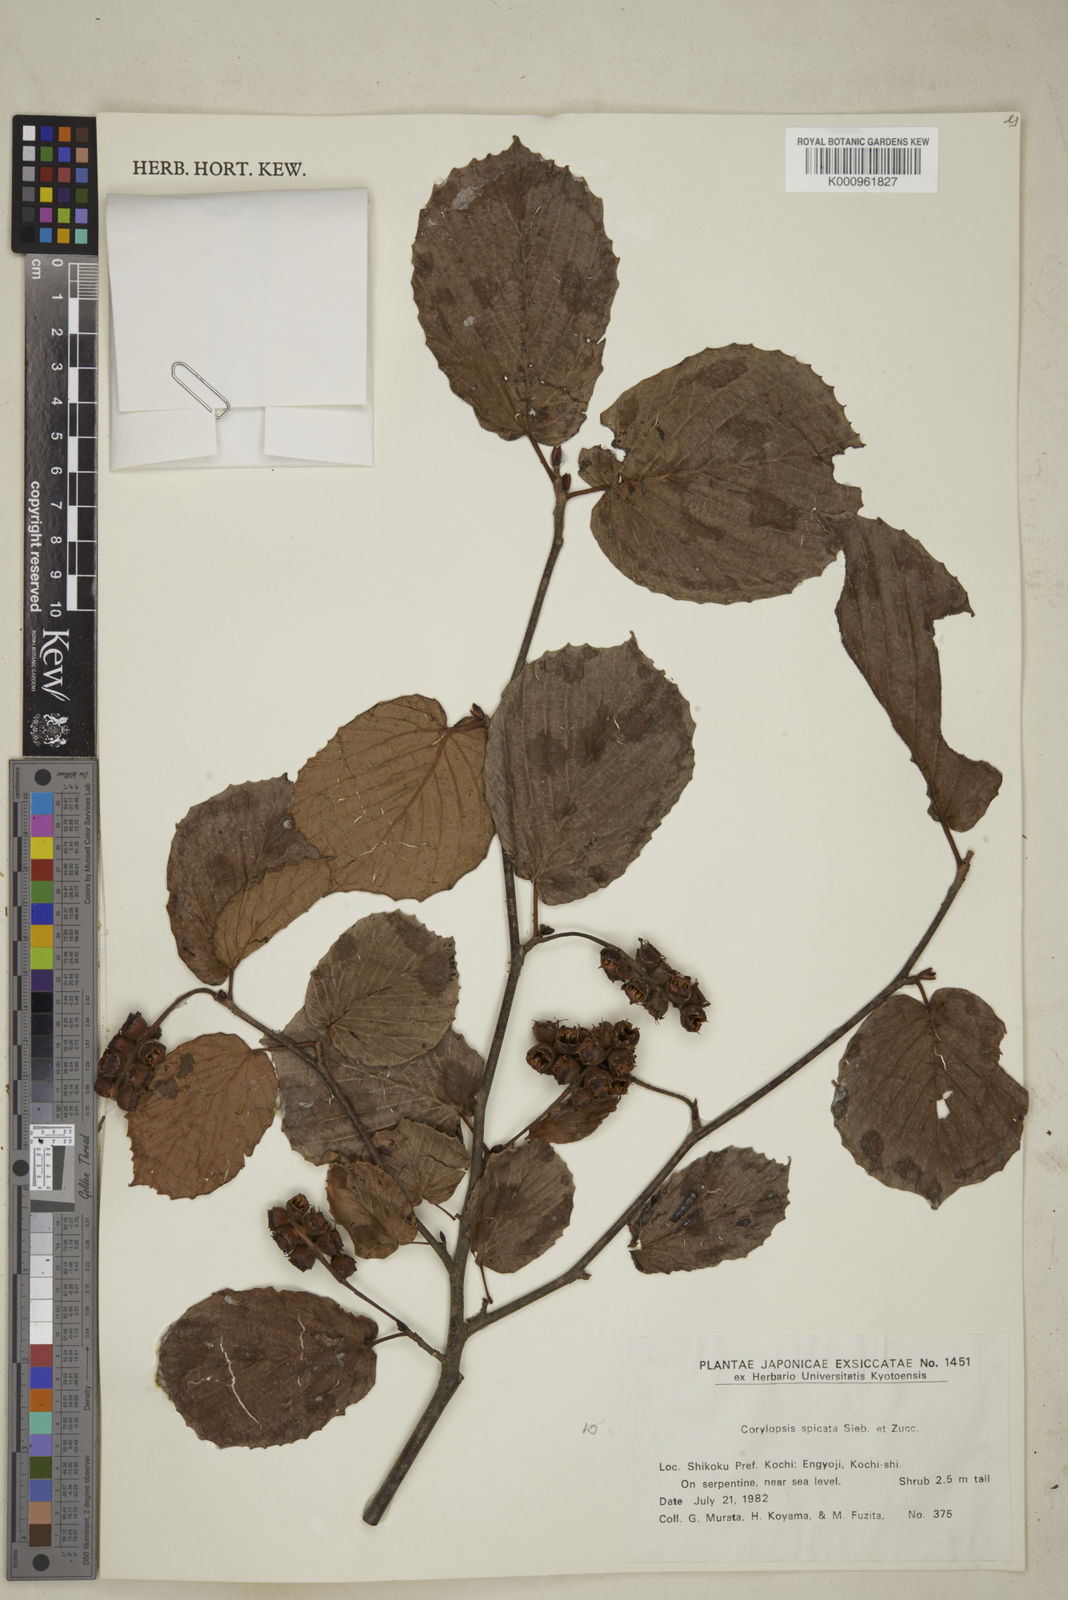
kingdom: Plantae
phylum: Tracheophyta
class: Magnoliopsida
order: Saxifragales
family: Hamamelidaceae
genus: Corylopsis
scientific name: Corylopsis spicata
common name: Spike winter-hazel
